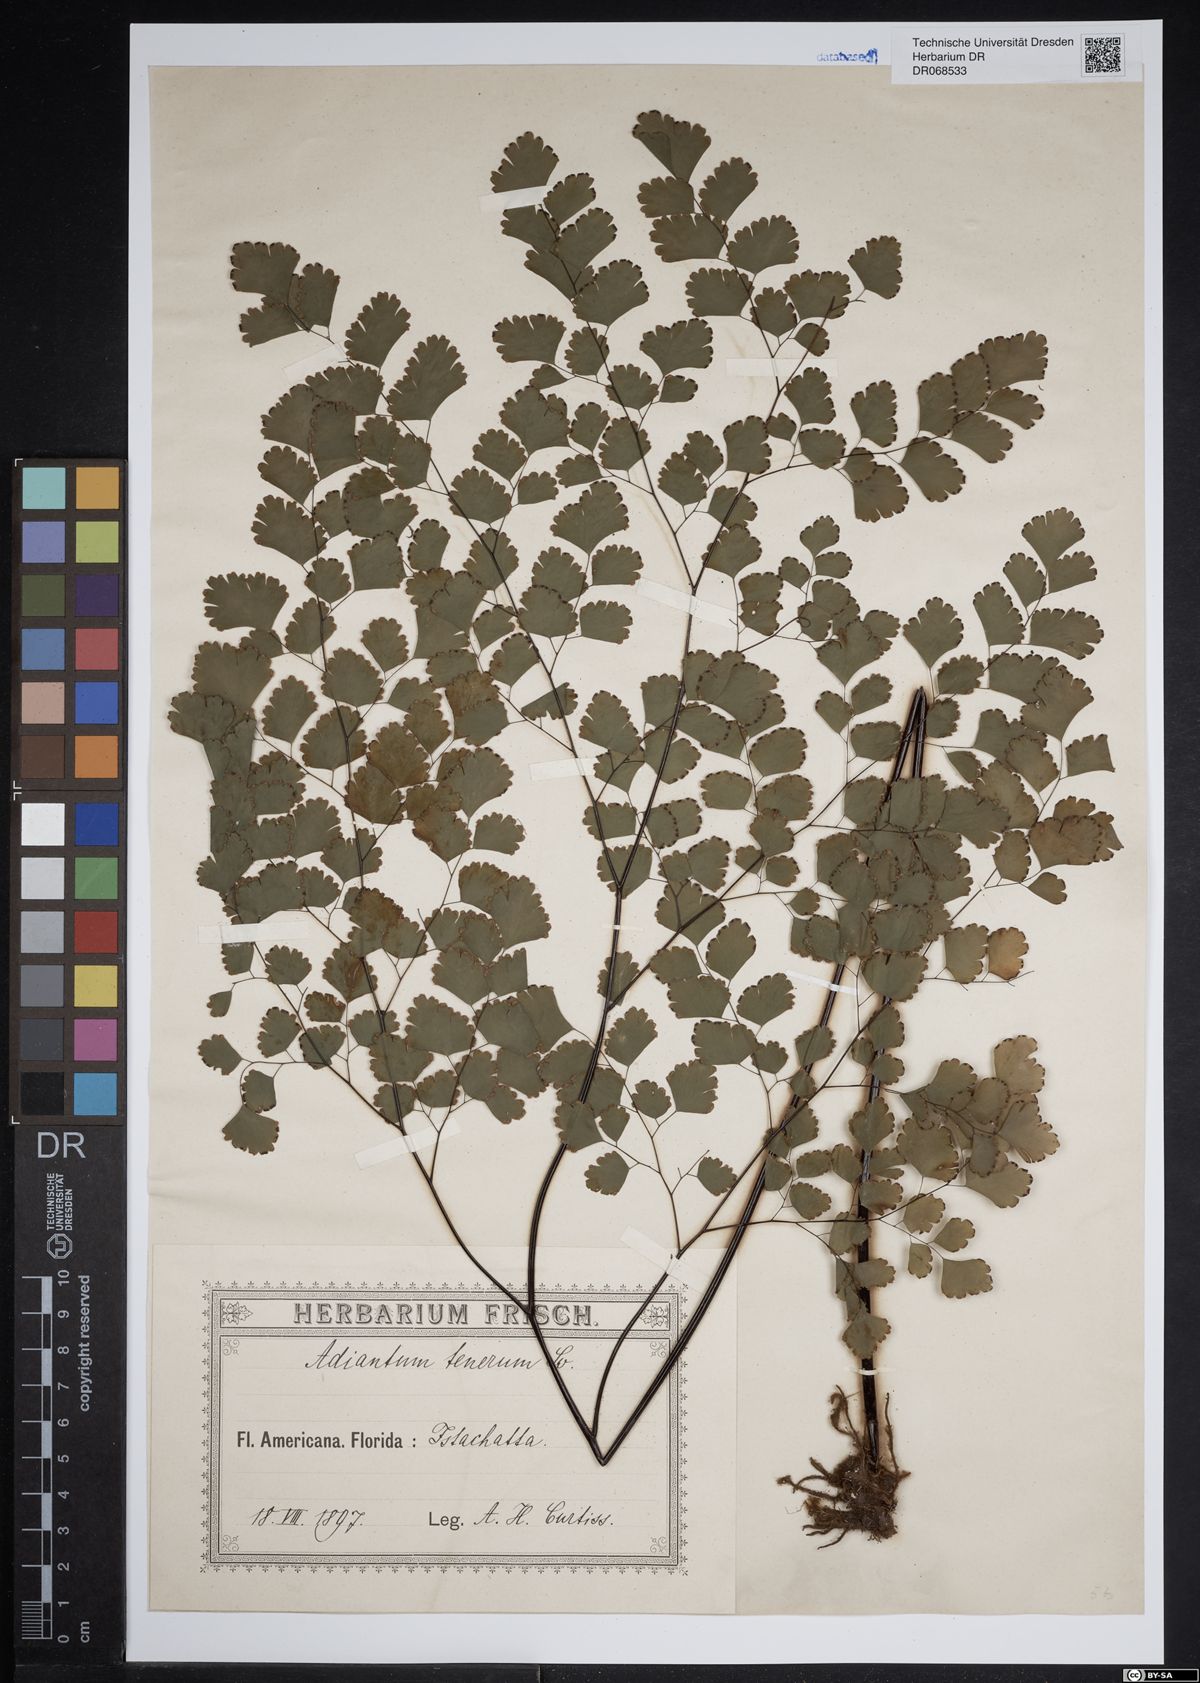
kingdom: Plantae
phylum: Tracheophyta
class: Polypodiopsida
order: Polypodiales
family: Pteridaceae
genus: Adiantum
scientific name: Adiantum tenerum
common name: Fan maidenhair
